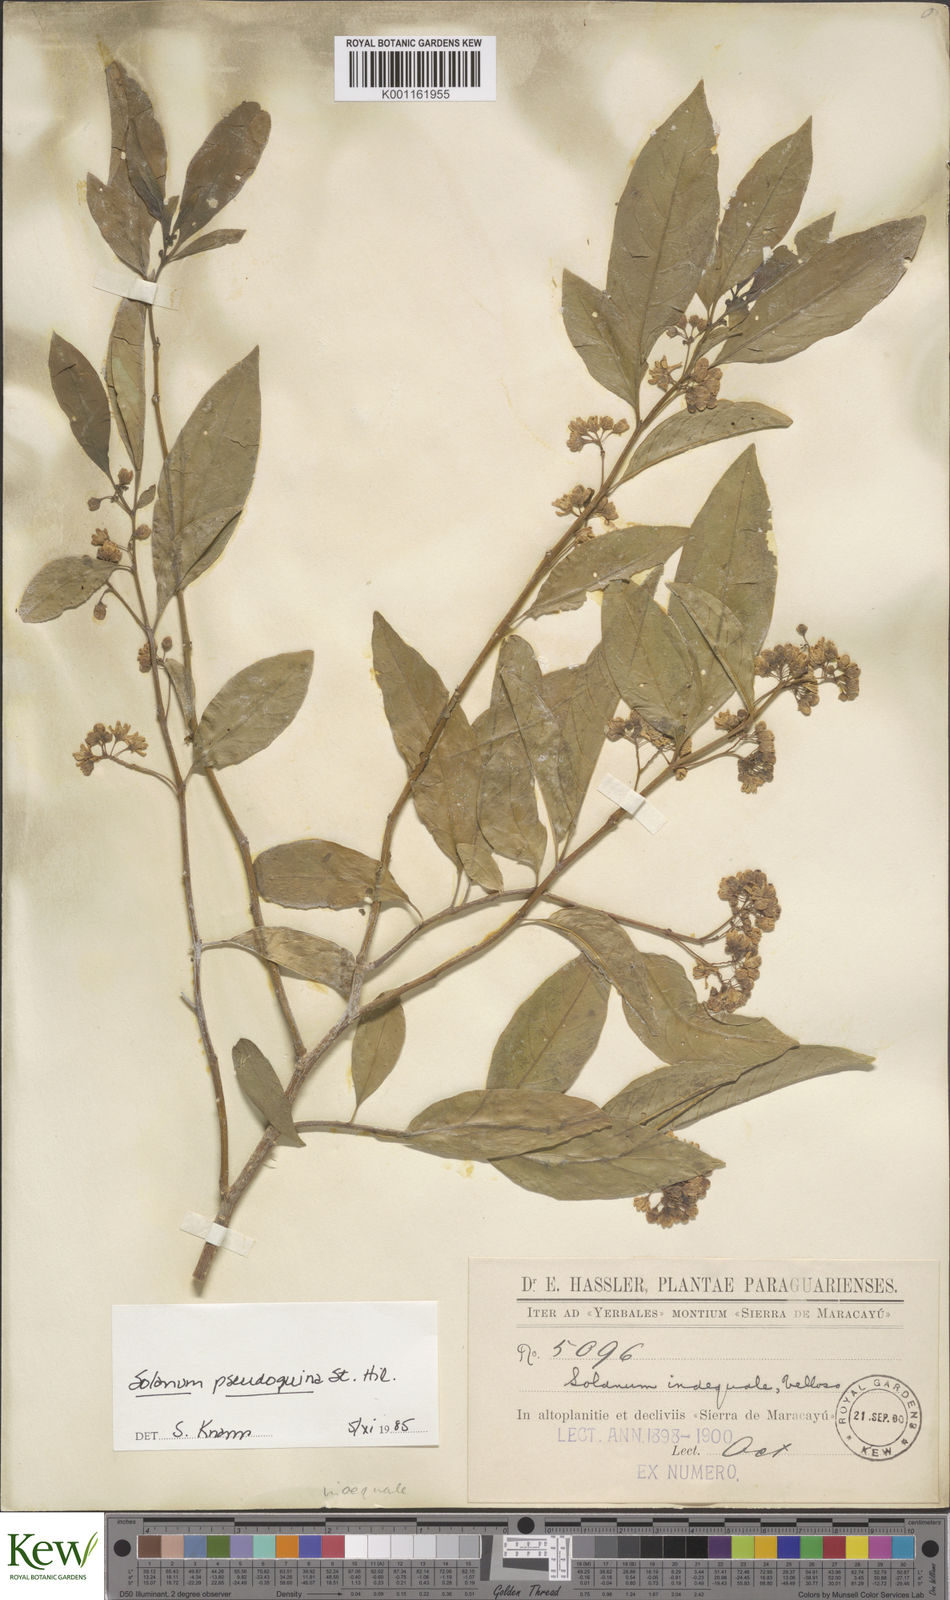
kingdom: Plantae
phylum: Tracheophyta
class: Magnoliopsida
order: Solanales
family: Solanaceae
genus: Solanum
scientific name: Solanum pseudoquina
